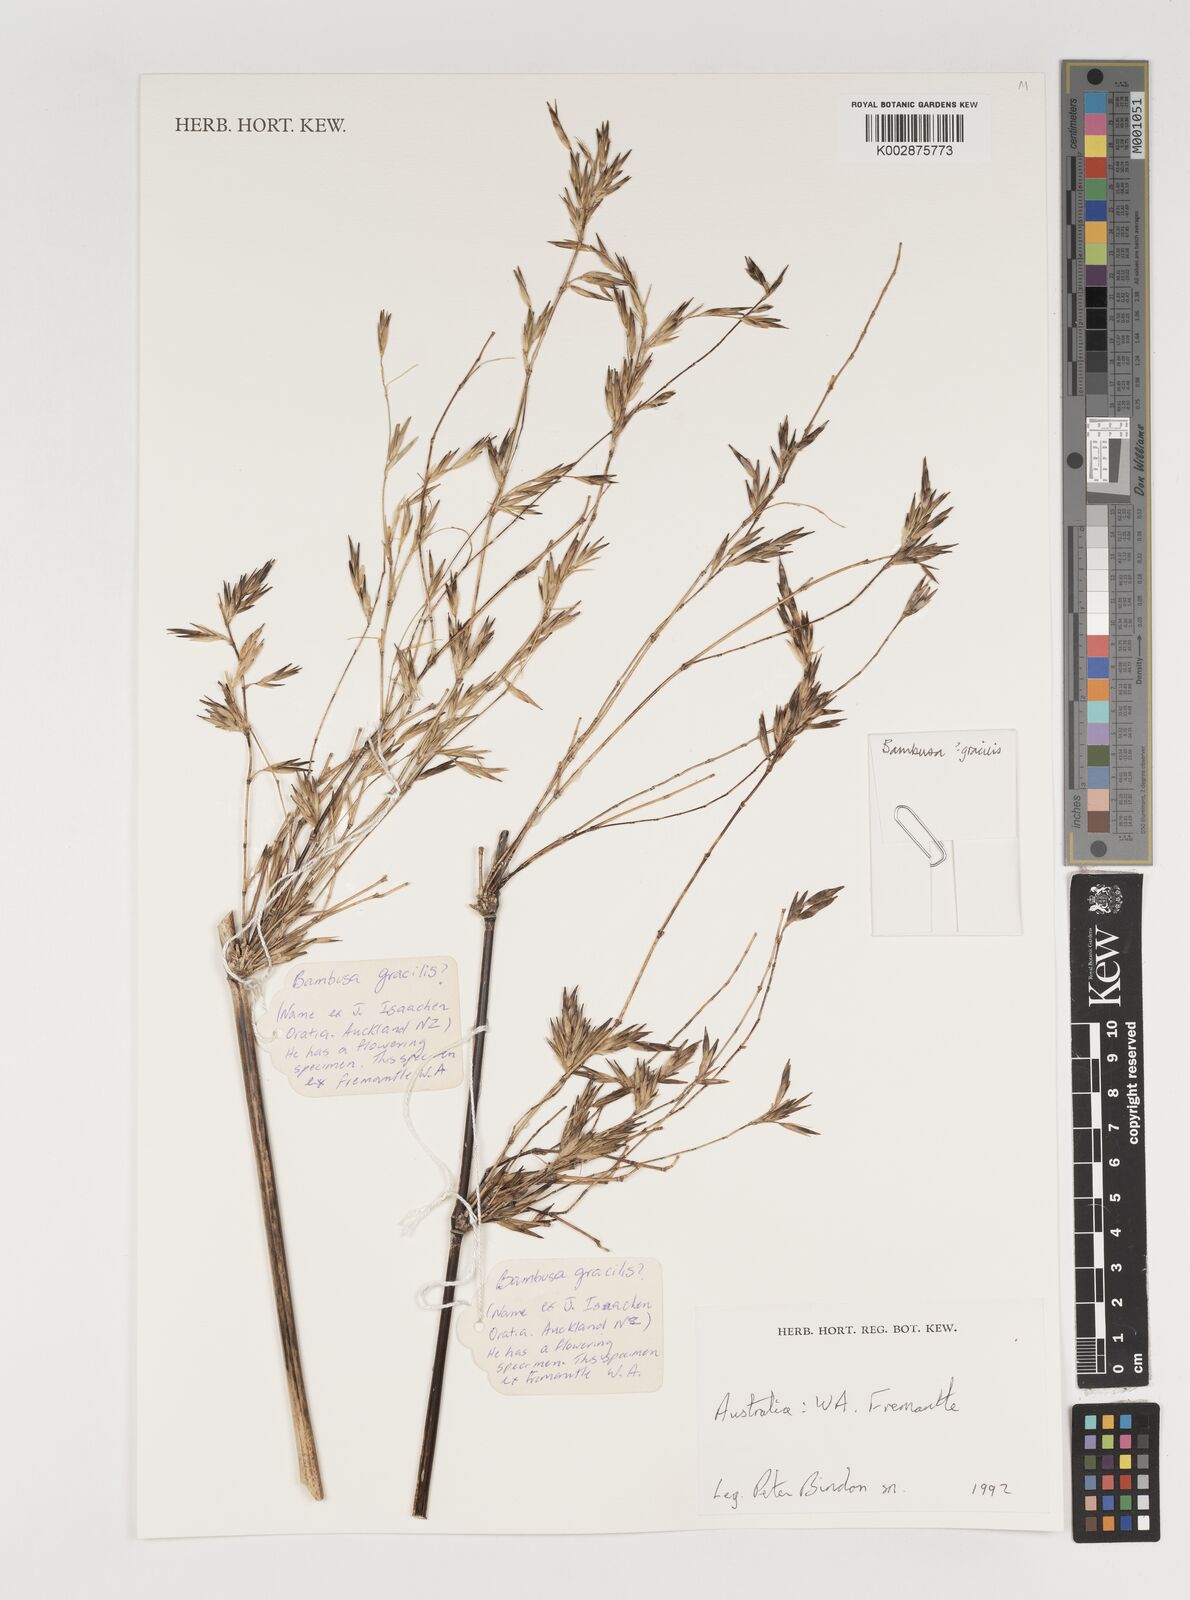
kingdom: Plantae
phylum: Tracheophyta
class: Liliopsida
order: Poales
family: Poaceae
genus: Neololeba
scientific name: Neololeba atra
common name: Cape bamboo
